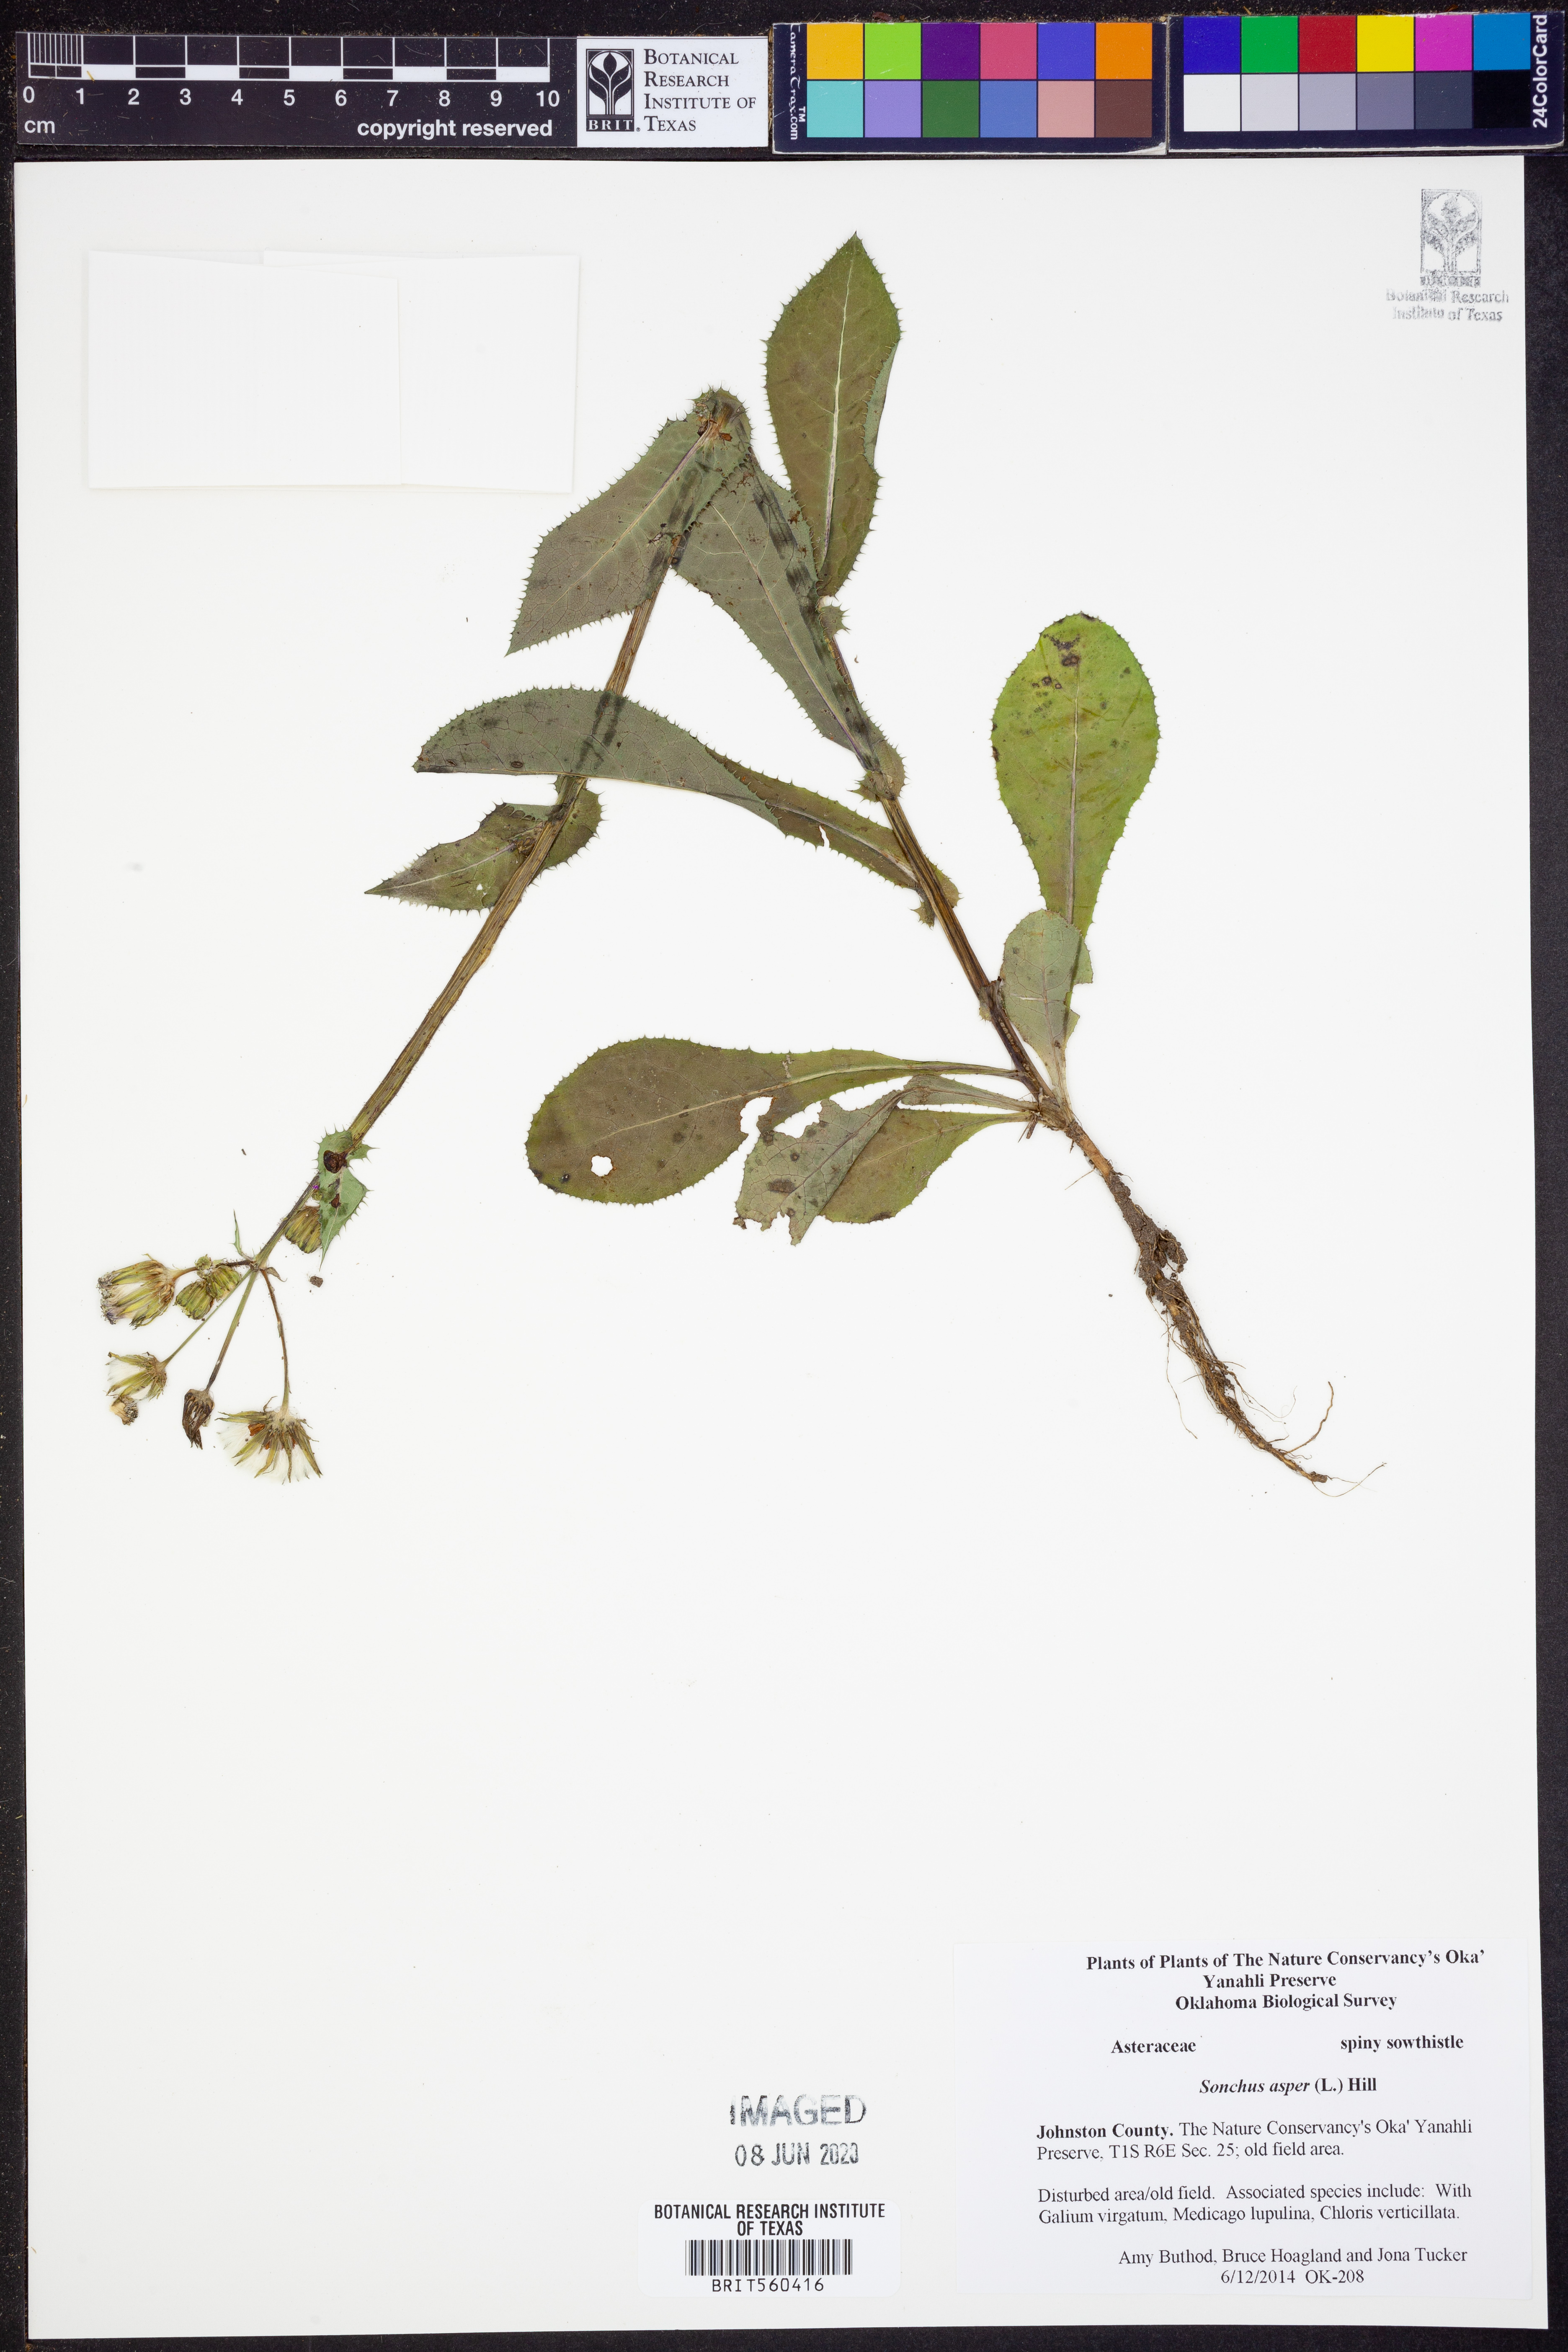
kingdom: Plantae
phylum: Tracheophyta
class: Magnoliopsida
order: Asterales
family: Asteraceae
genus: Sonchus
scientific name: Sonchus asper
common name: Prickly sow-thistle
